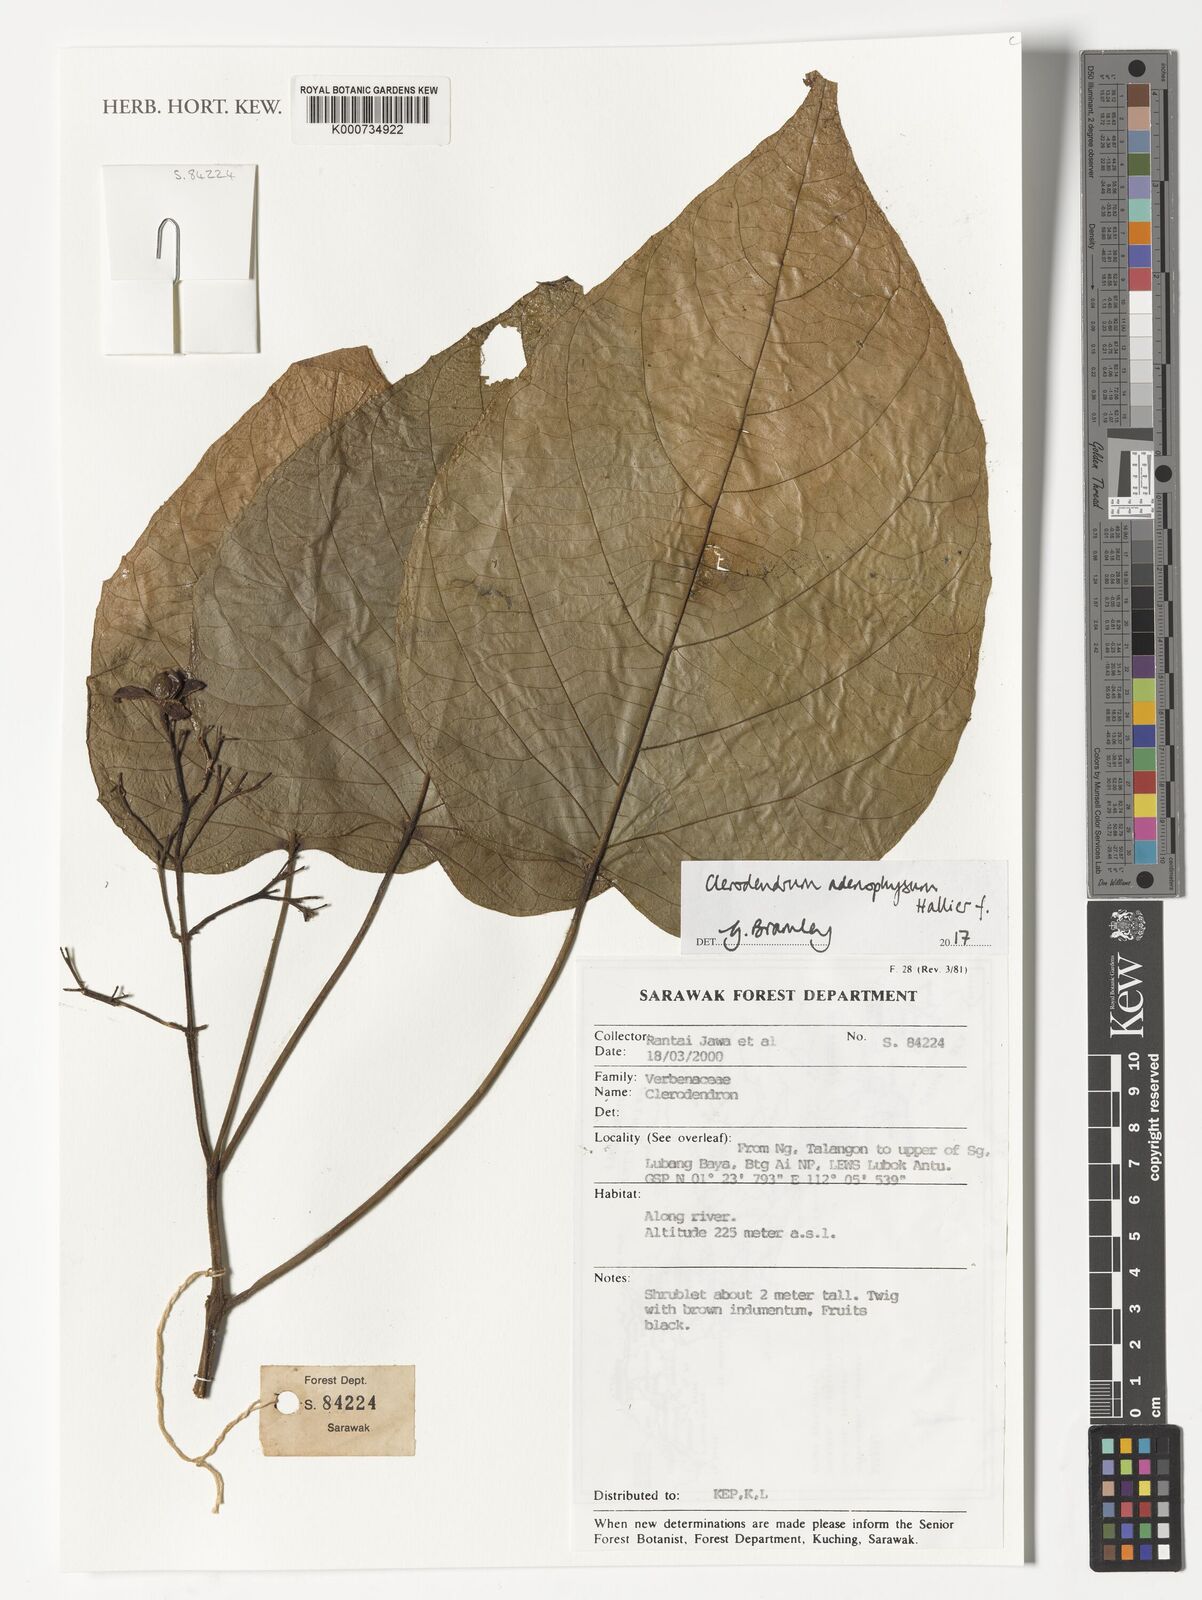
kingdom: Plantae
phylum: Tracheophyta
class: Magnoliopsida
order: Lamiales
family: Lamiaceae
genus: Clerodendrum
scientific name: Clerodendrum adenophysum
